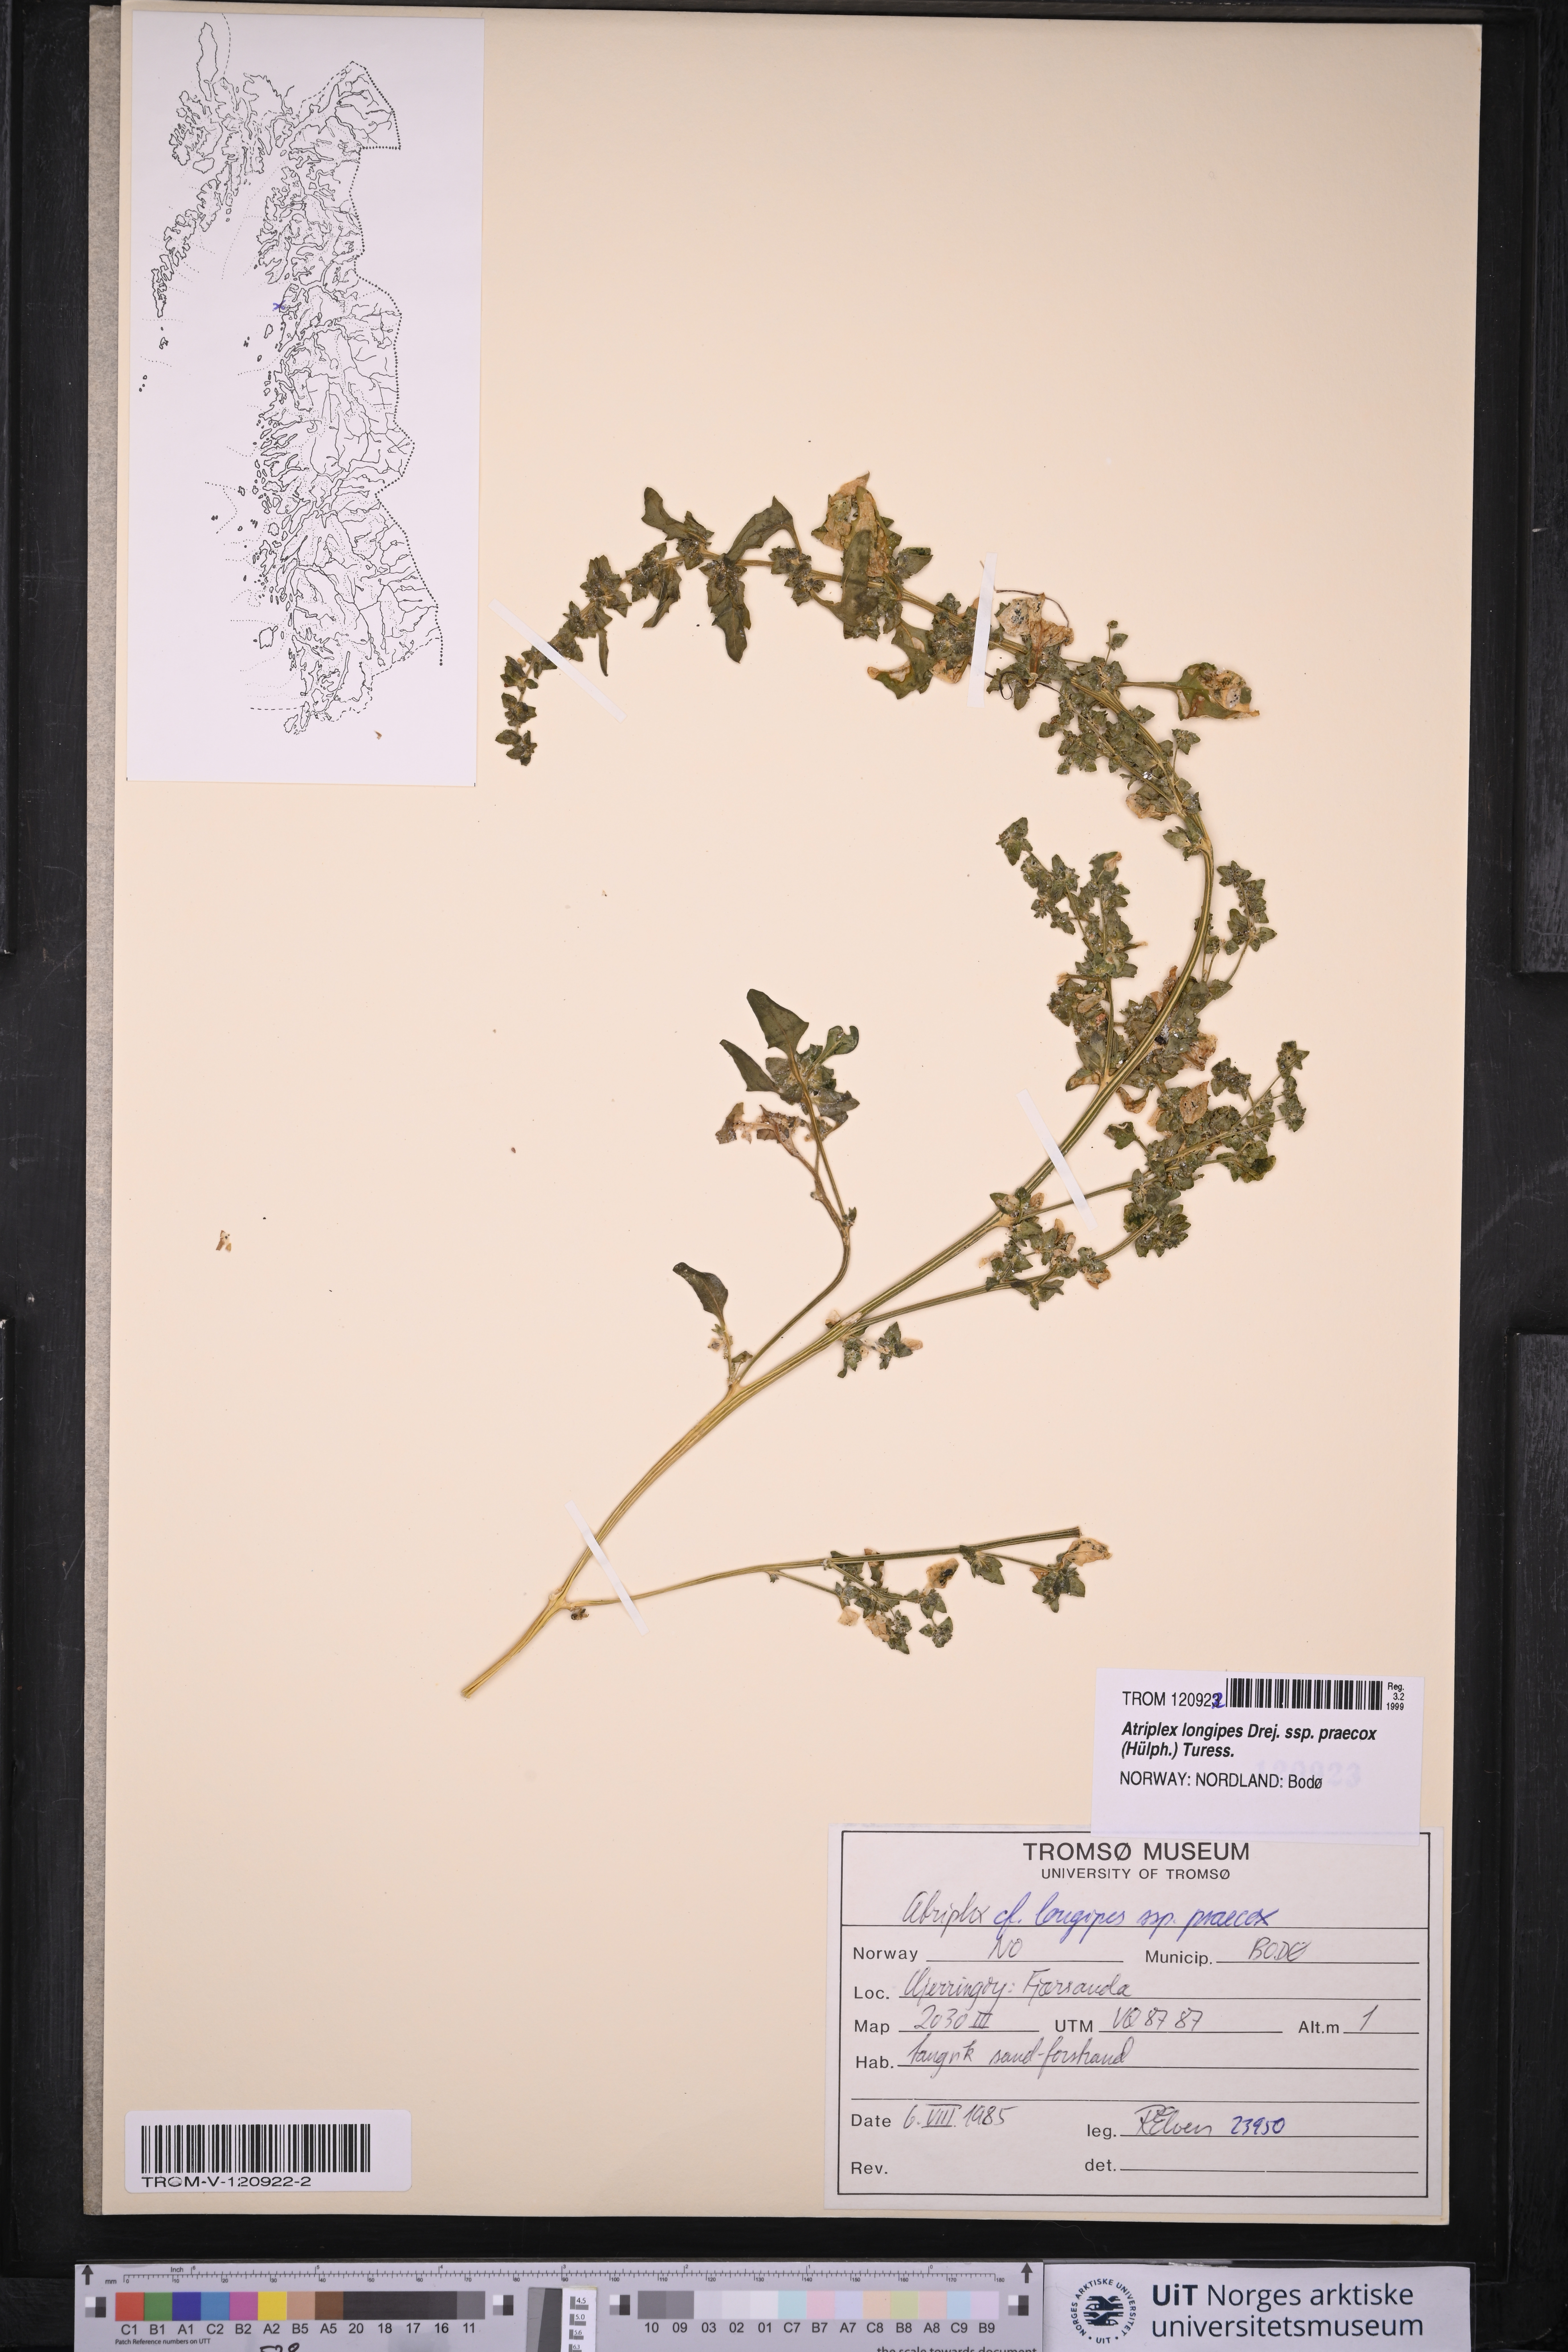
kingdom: Plantae
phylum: Tracheophyta
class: Magnoliopsida
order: Caryophyllales
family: Amaranthaceae
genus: Atriplex
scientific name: Atriplex praecox
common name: Early orache
